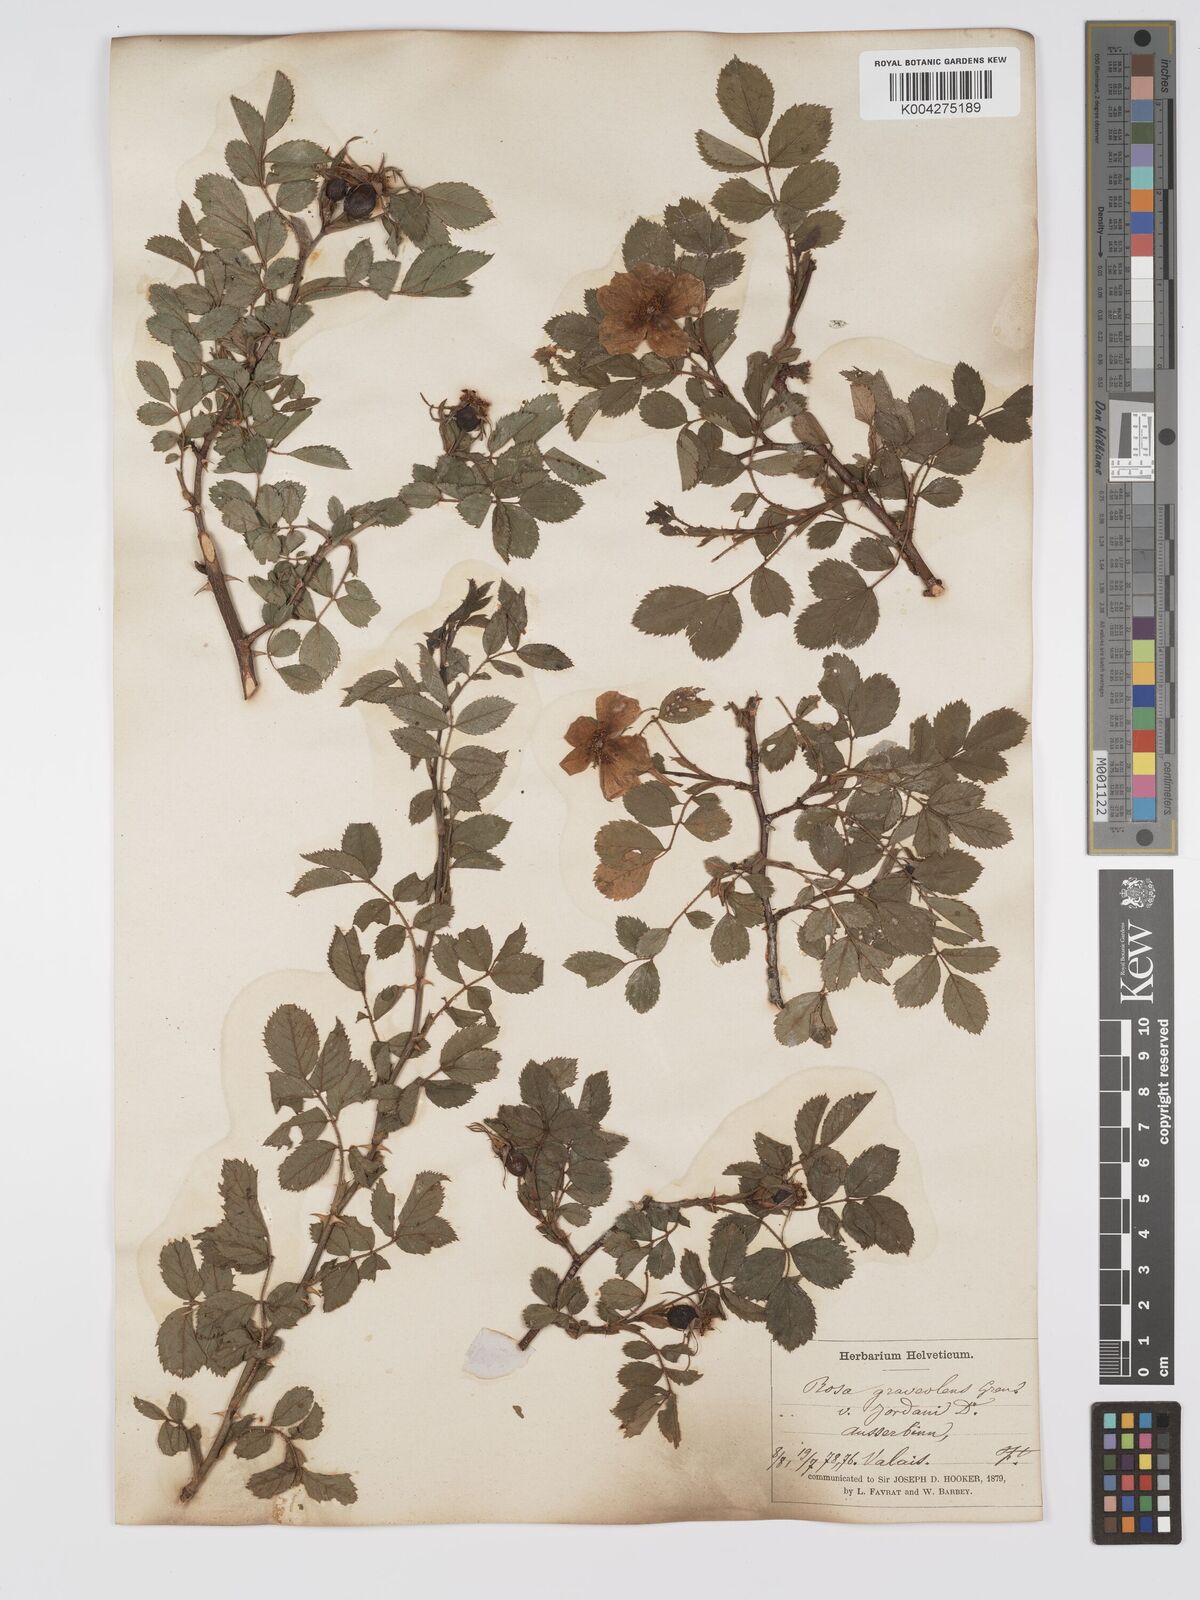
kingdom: Plantae
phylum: Tracheophyta
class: Magnoliopsida
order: Rosales
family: Rosaceae
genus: Rosa
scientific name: Rosa
